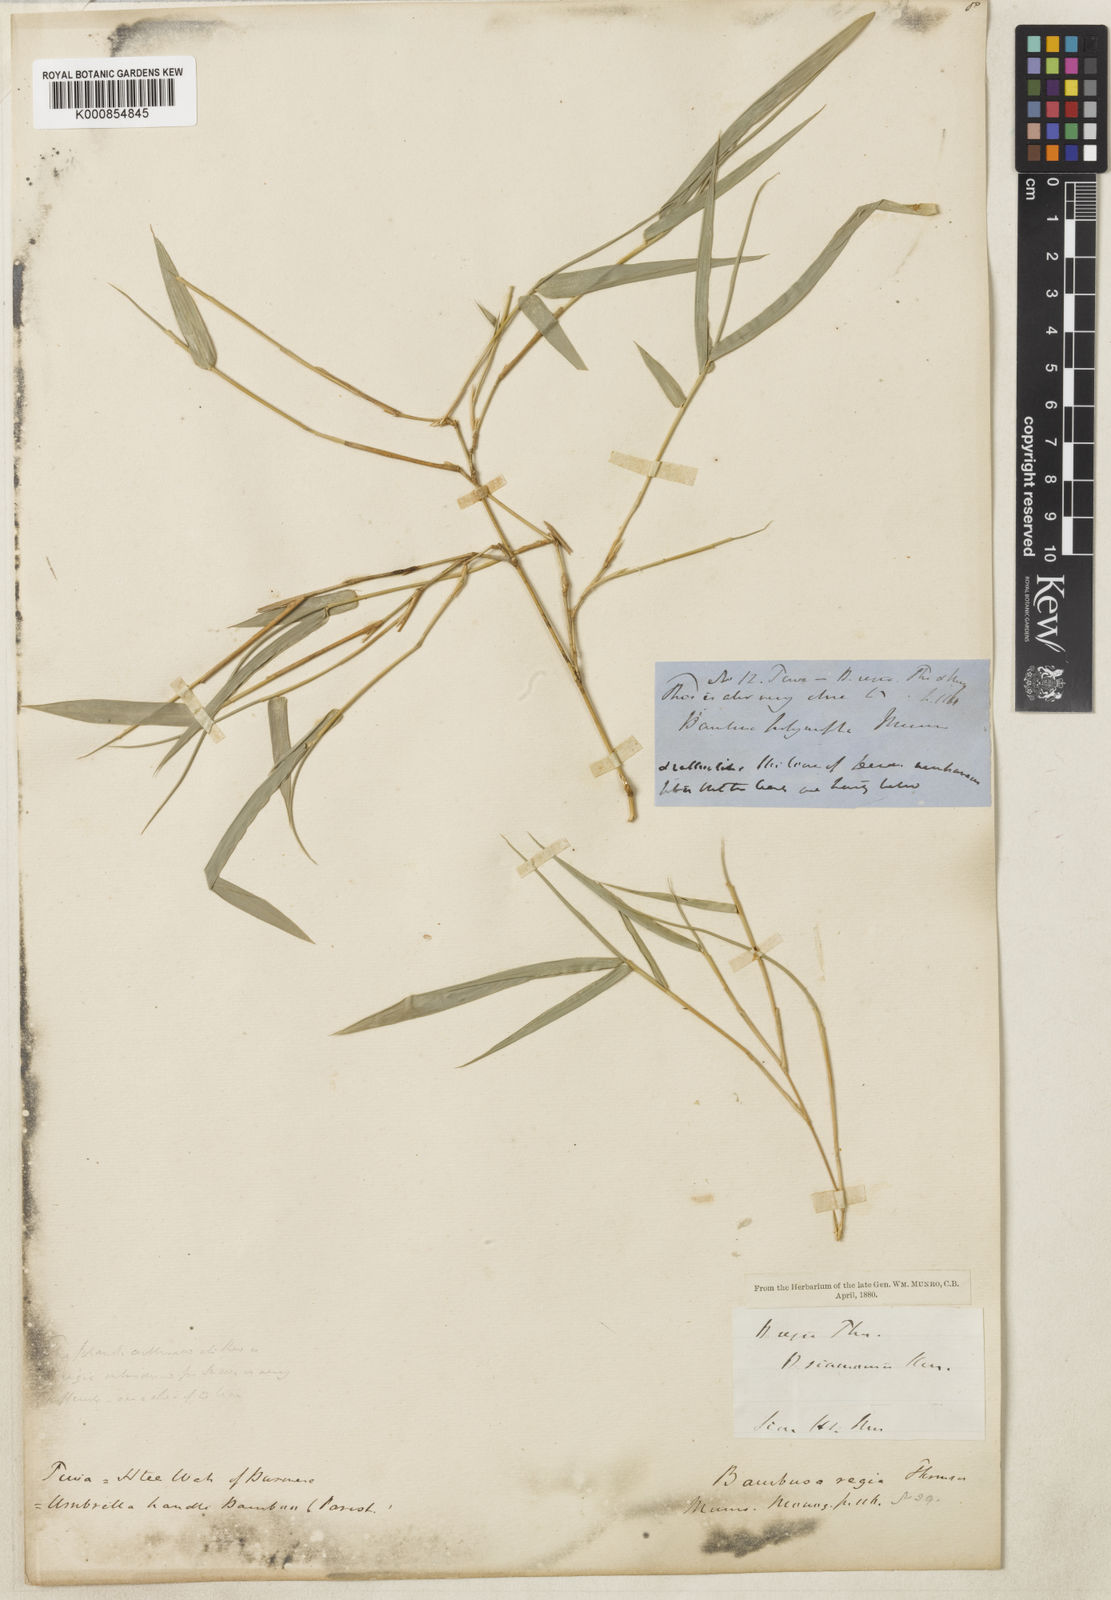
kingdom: Plantae
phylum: Tracheophyta
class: Liliopsida
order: Poales
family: Poaceae
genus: Thyrsostachys
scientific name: Thyrsostachys siamensis
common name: Thailand bamboo
